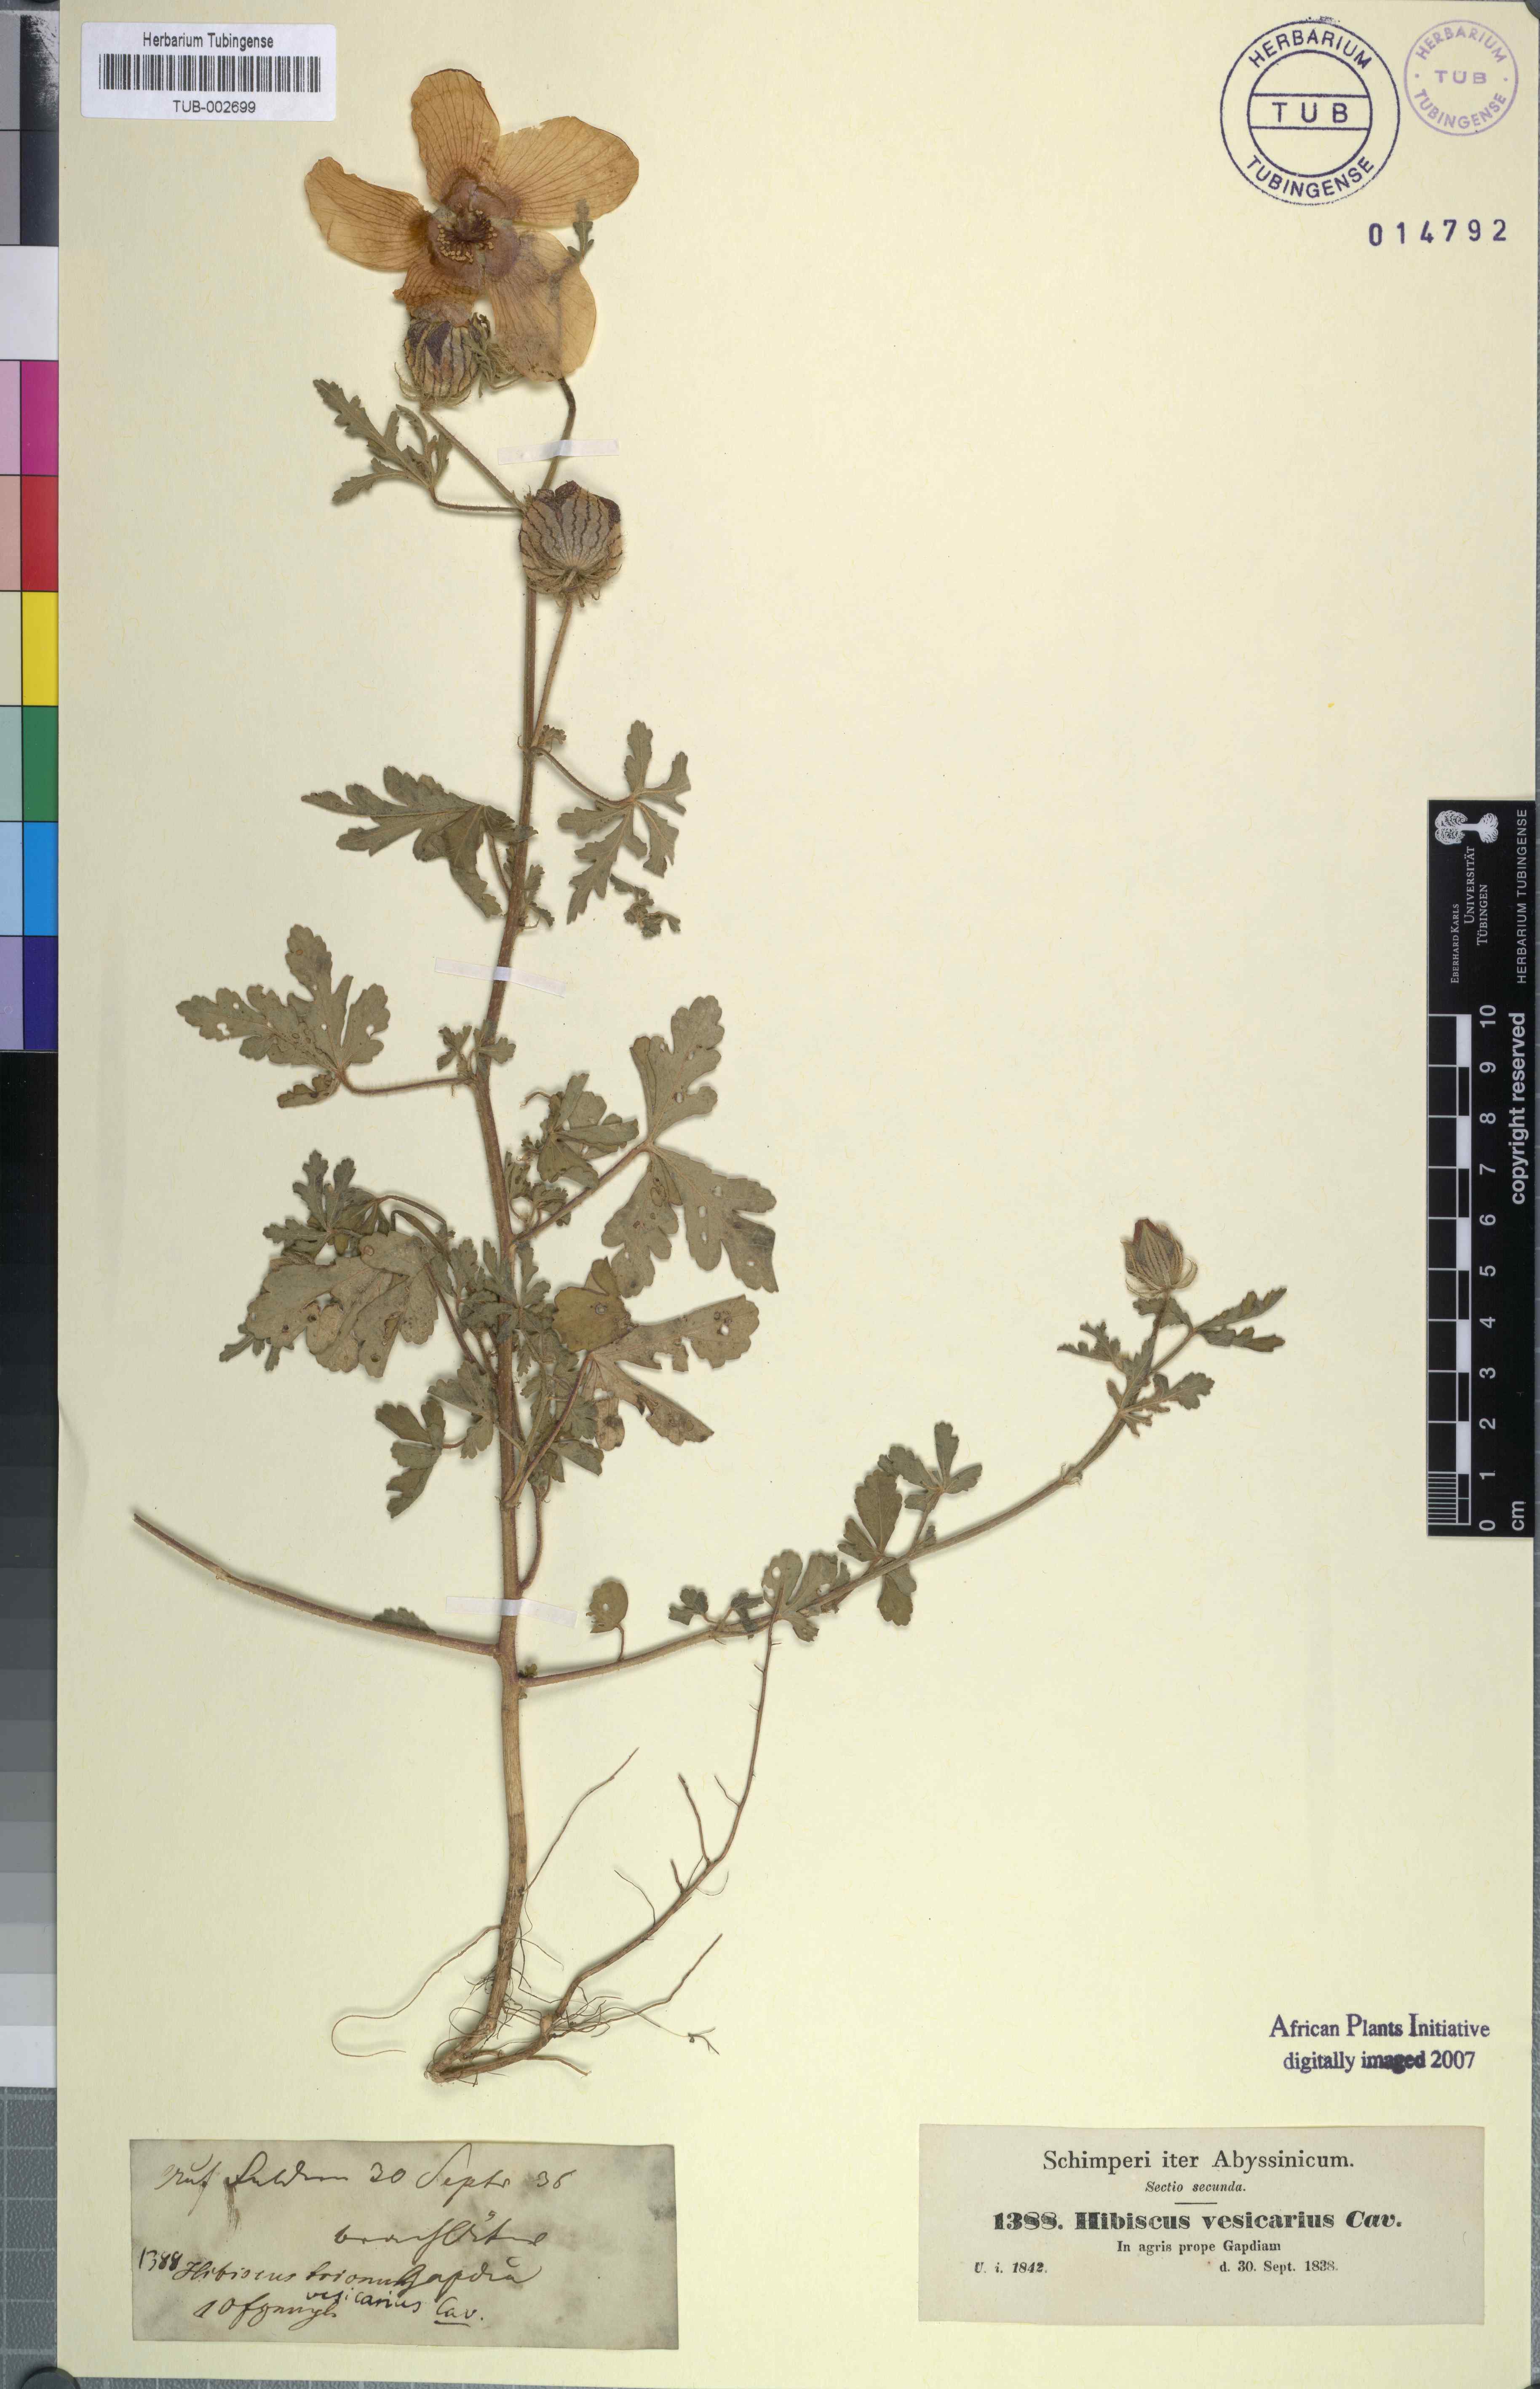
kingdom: Plantae
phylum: Tracheophyta
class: Magnoliopsida
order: Malvales
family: Malvaceae
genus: Hibiscus
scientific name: Hibiscus trionum
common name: Bladder ketmia
